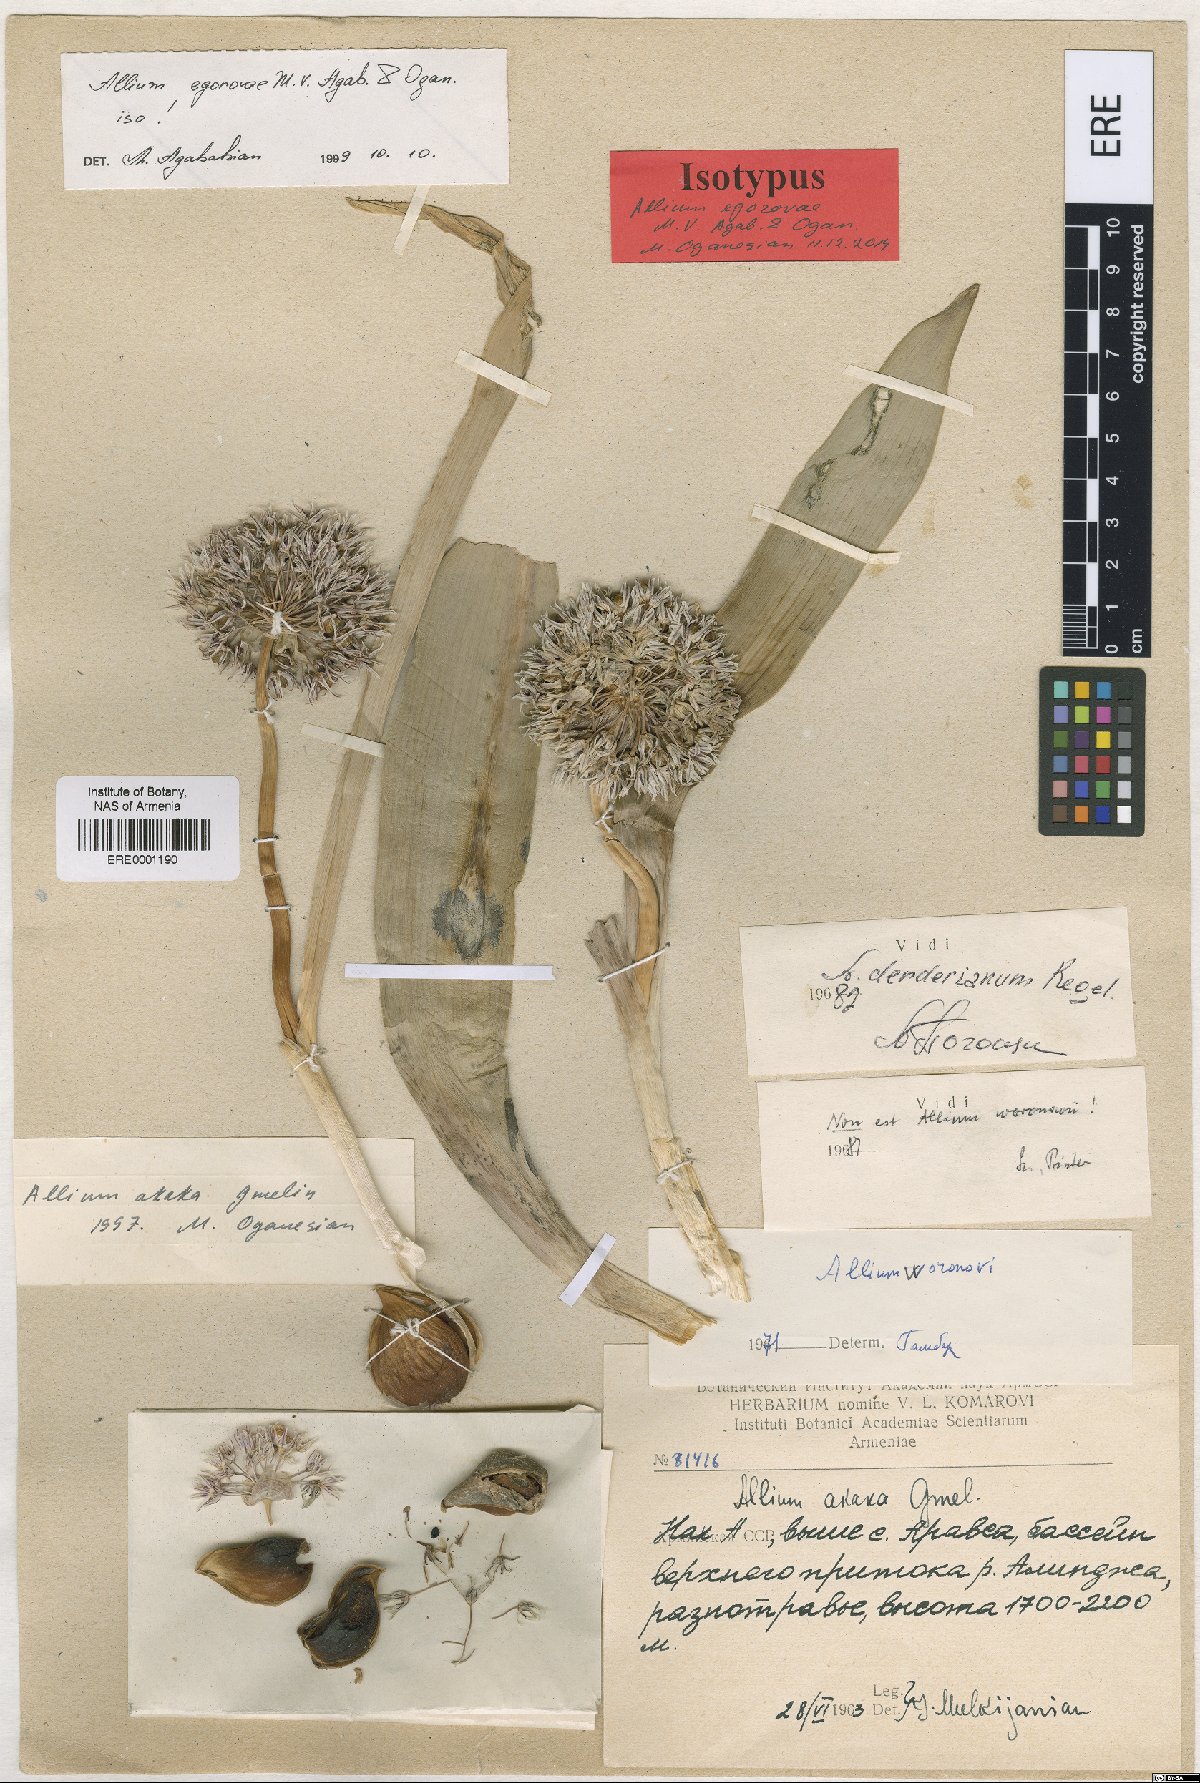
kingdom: Plantae
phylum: Tracheophyta
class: Liliopsida
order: Asparagales
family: Amaryllidaceae
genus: Allium
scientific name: Allium egorovae
